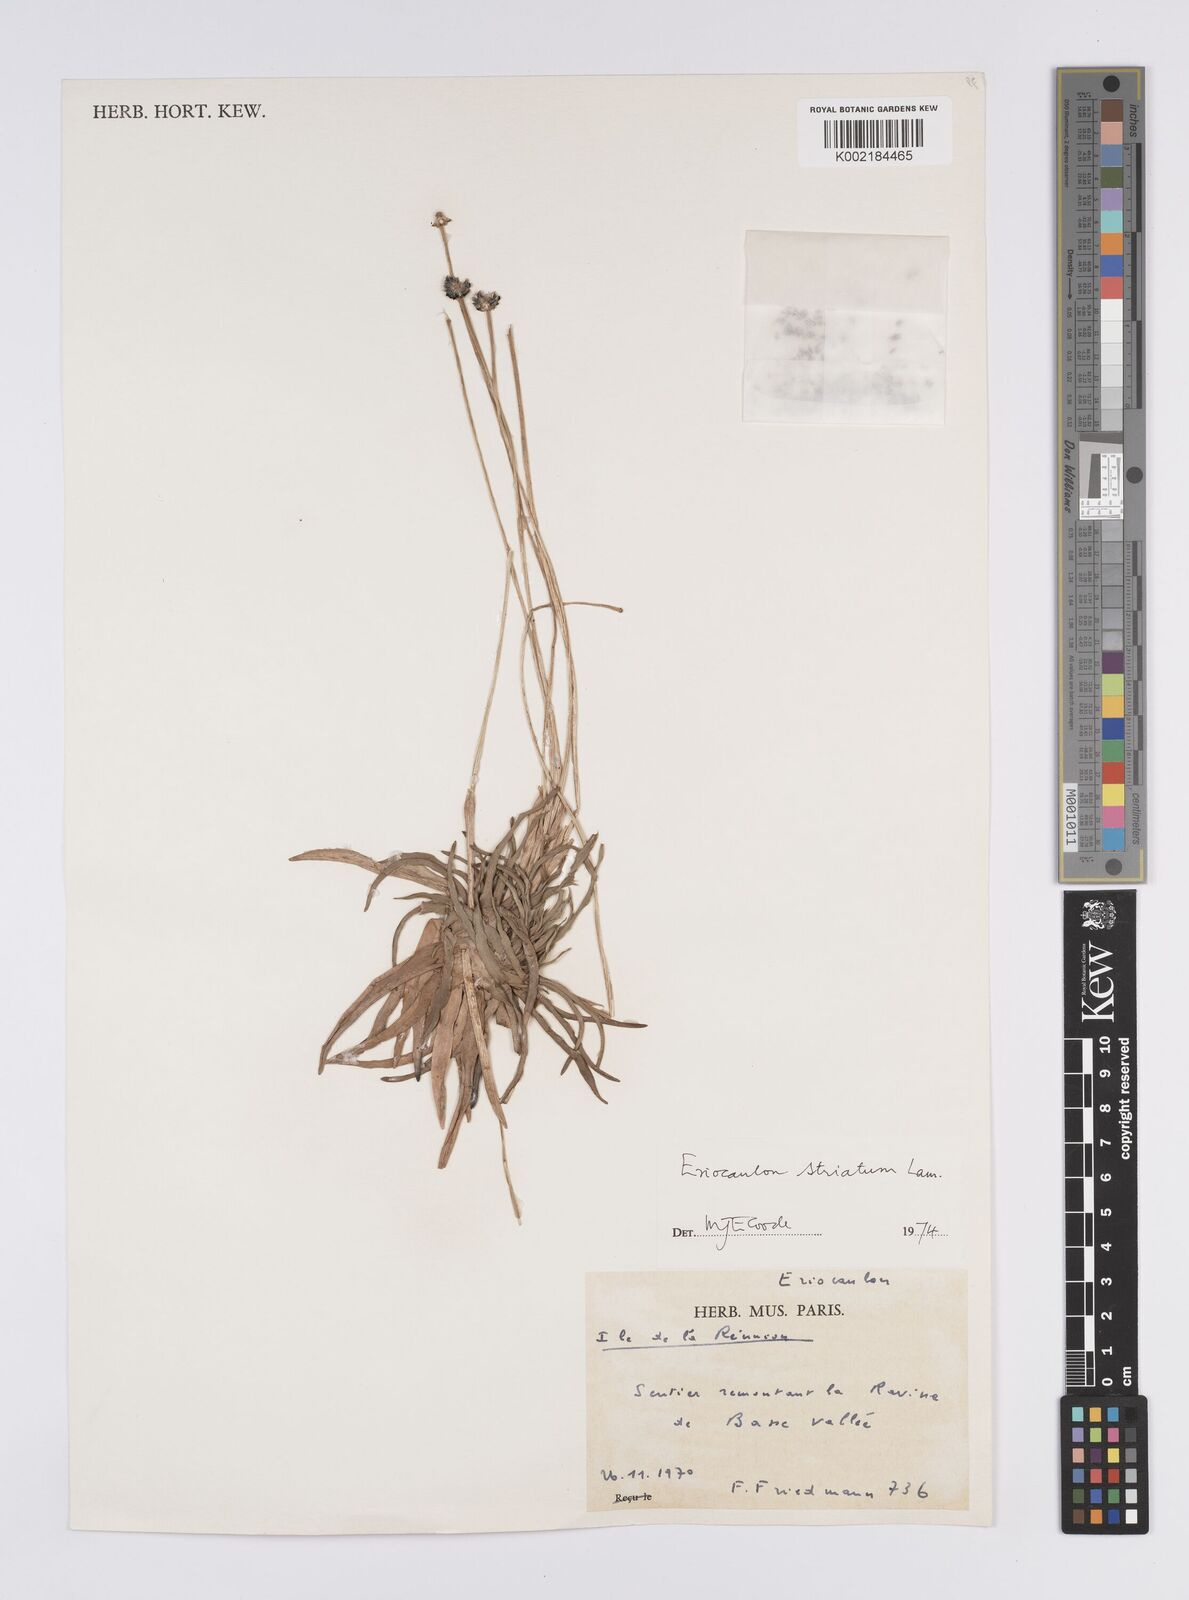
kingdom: Plantae
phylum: Tracheophyta
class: Liliopsida
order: Poales
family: Eriocaulaceae
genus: Eriocaulon
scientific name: Eriocaulon striatum
